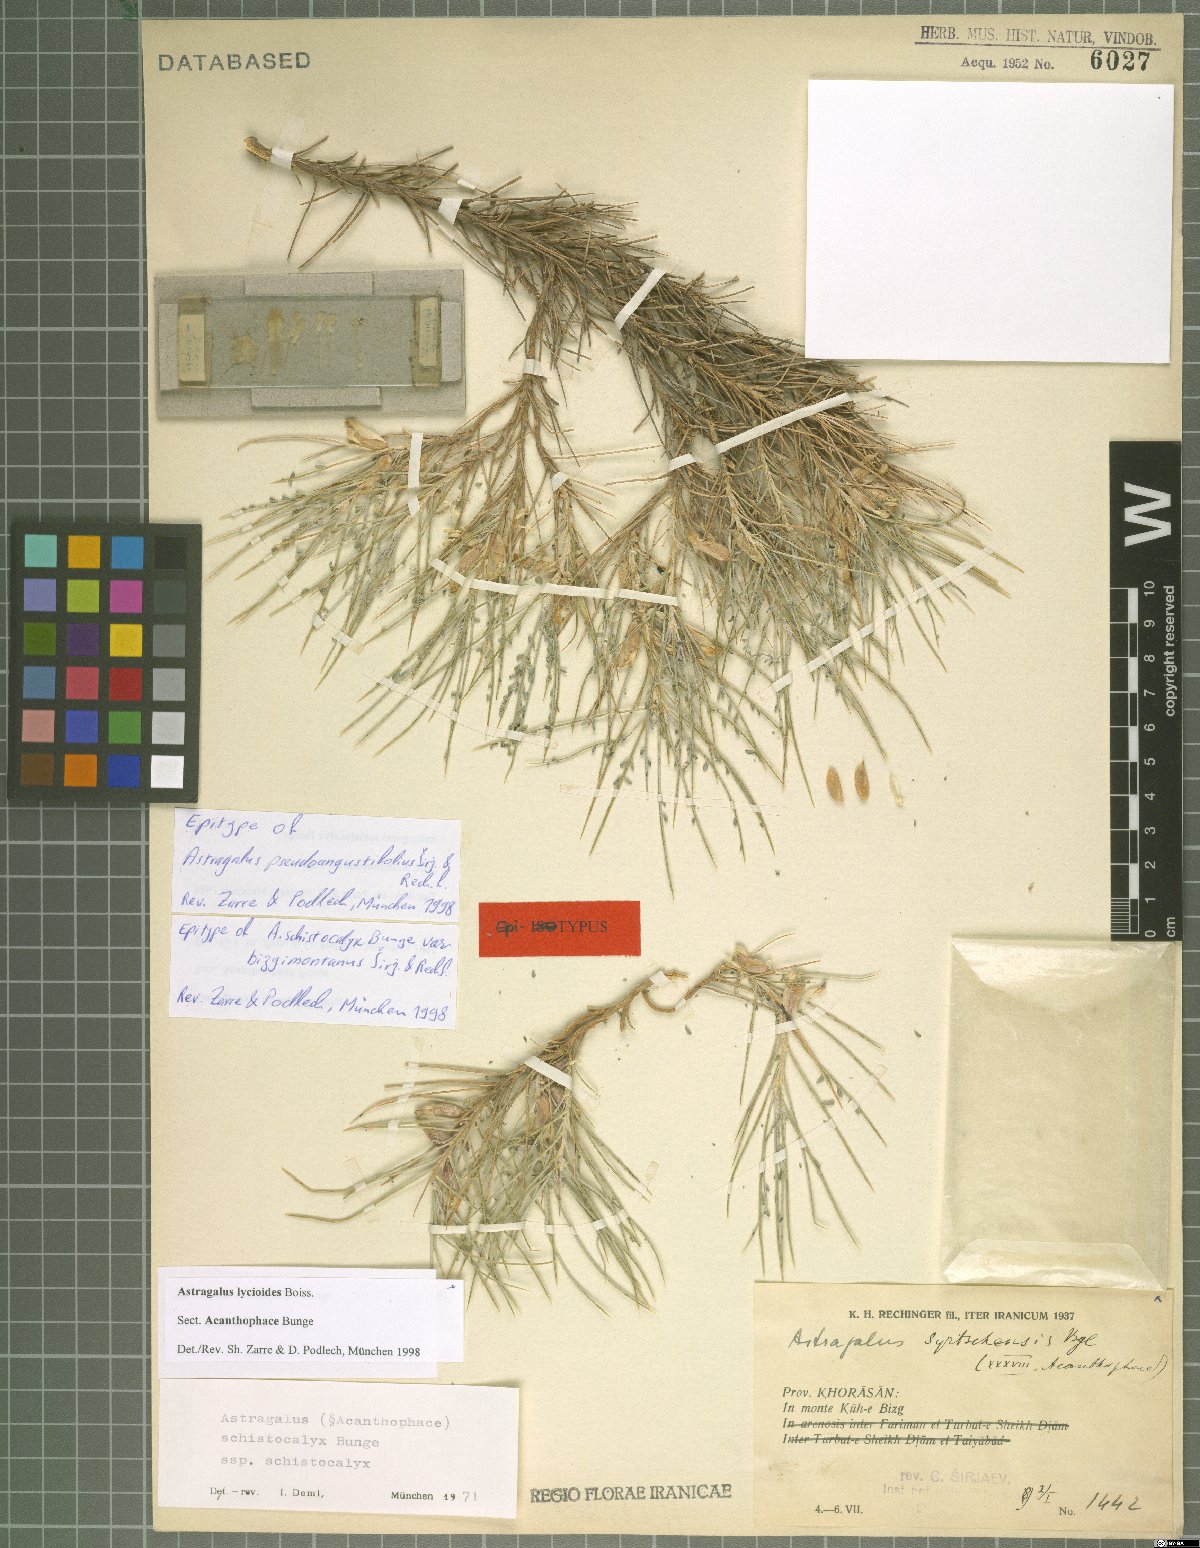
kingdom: Plantae
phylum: Tracheophyta
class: Magnoliopsida
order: Fabales
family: Fabaceae
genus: Astragalus
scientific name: Astragalus lycioides
